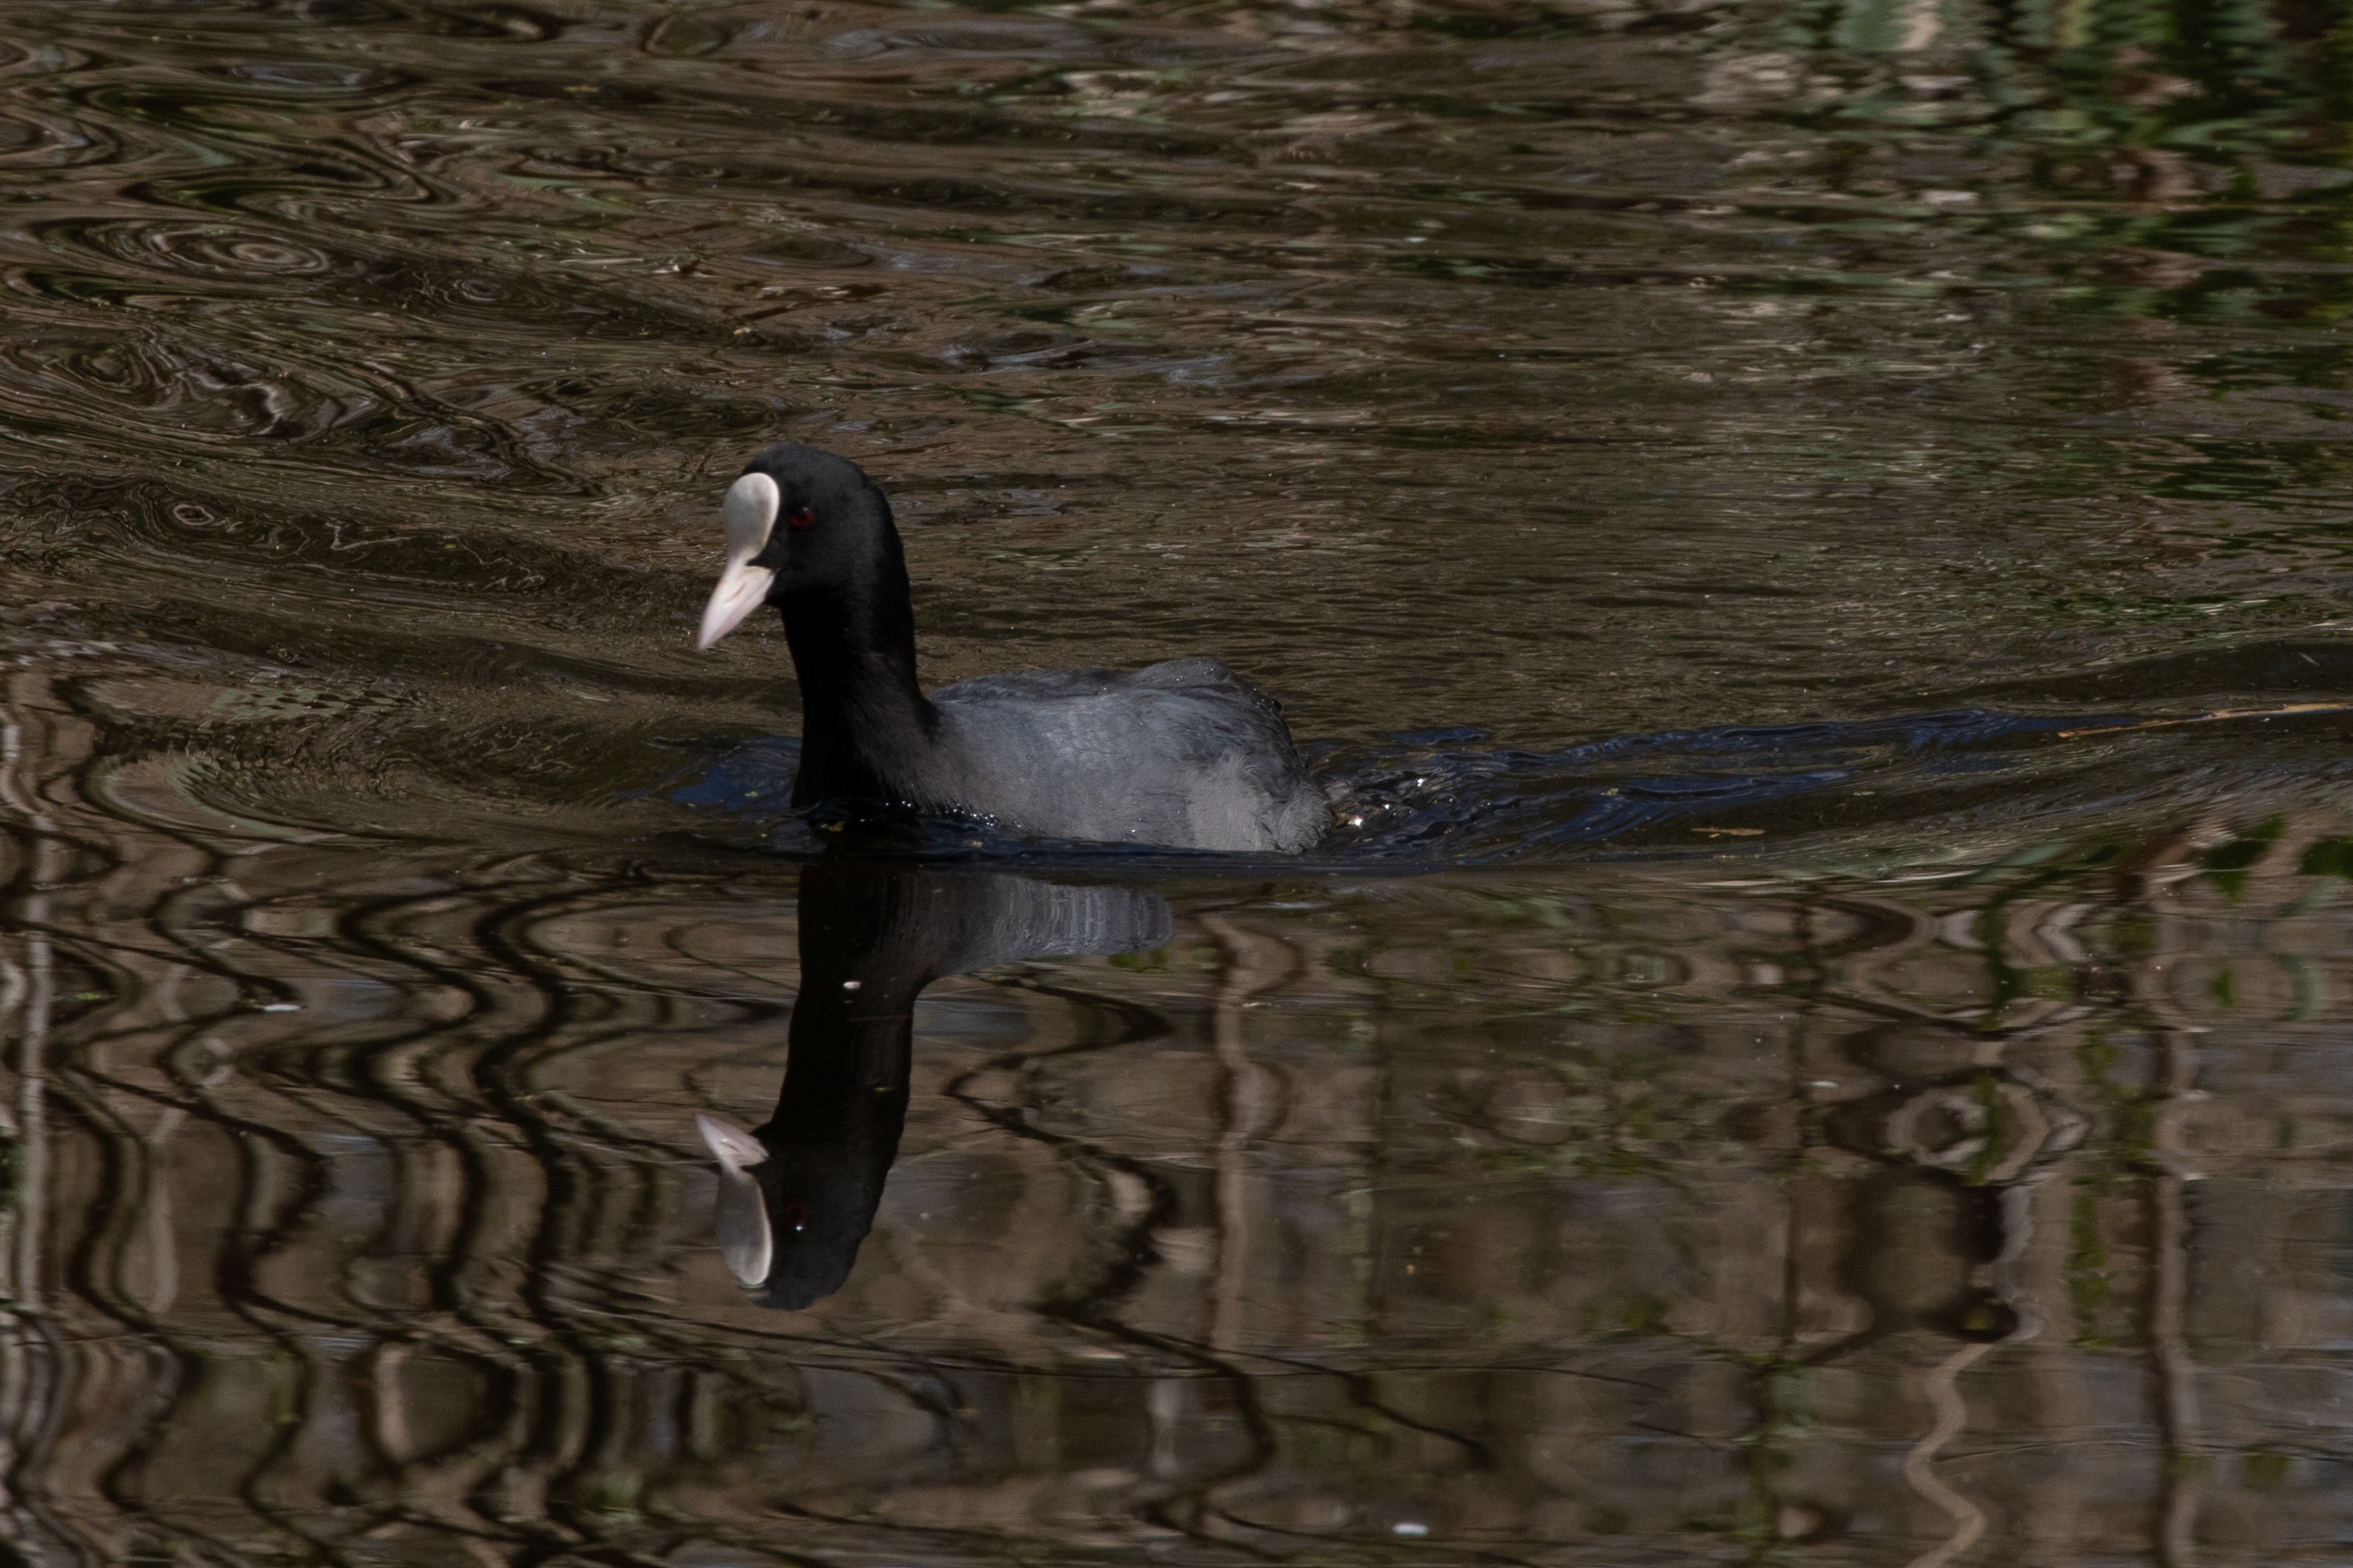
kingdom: Animalia
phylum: Chordata
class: Aves
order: Gruiformes
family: Rallidae
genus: Fulica
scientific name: Fulica atra
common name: Blishøne
